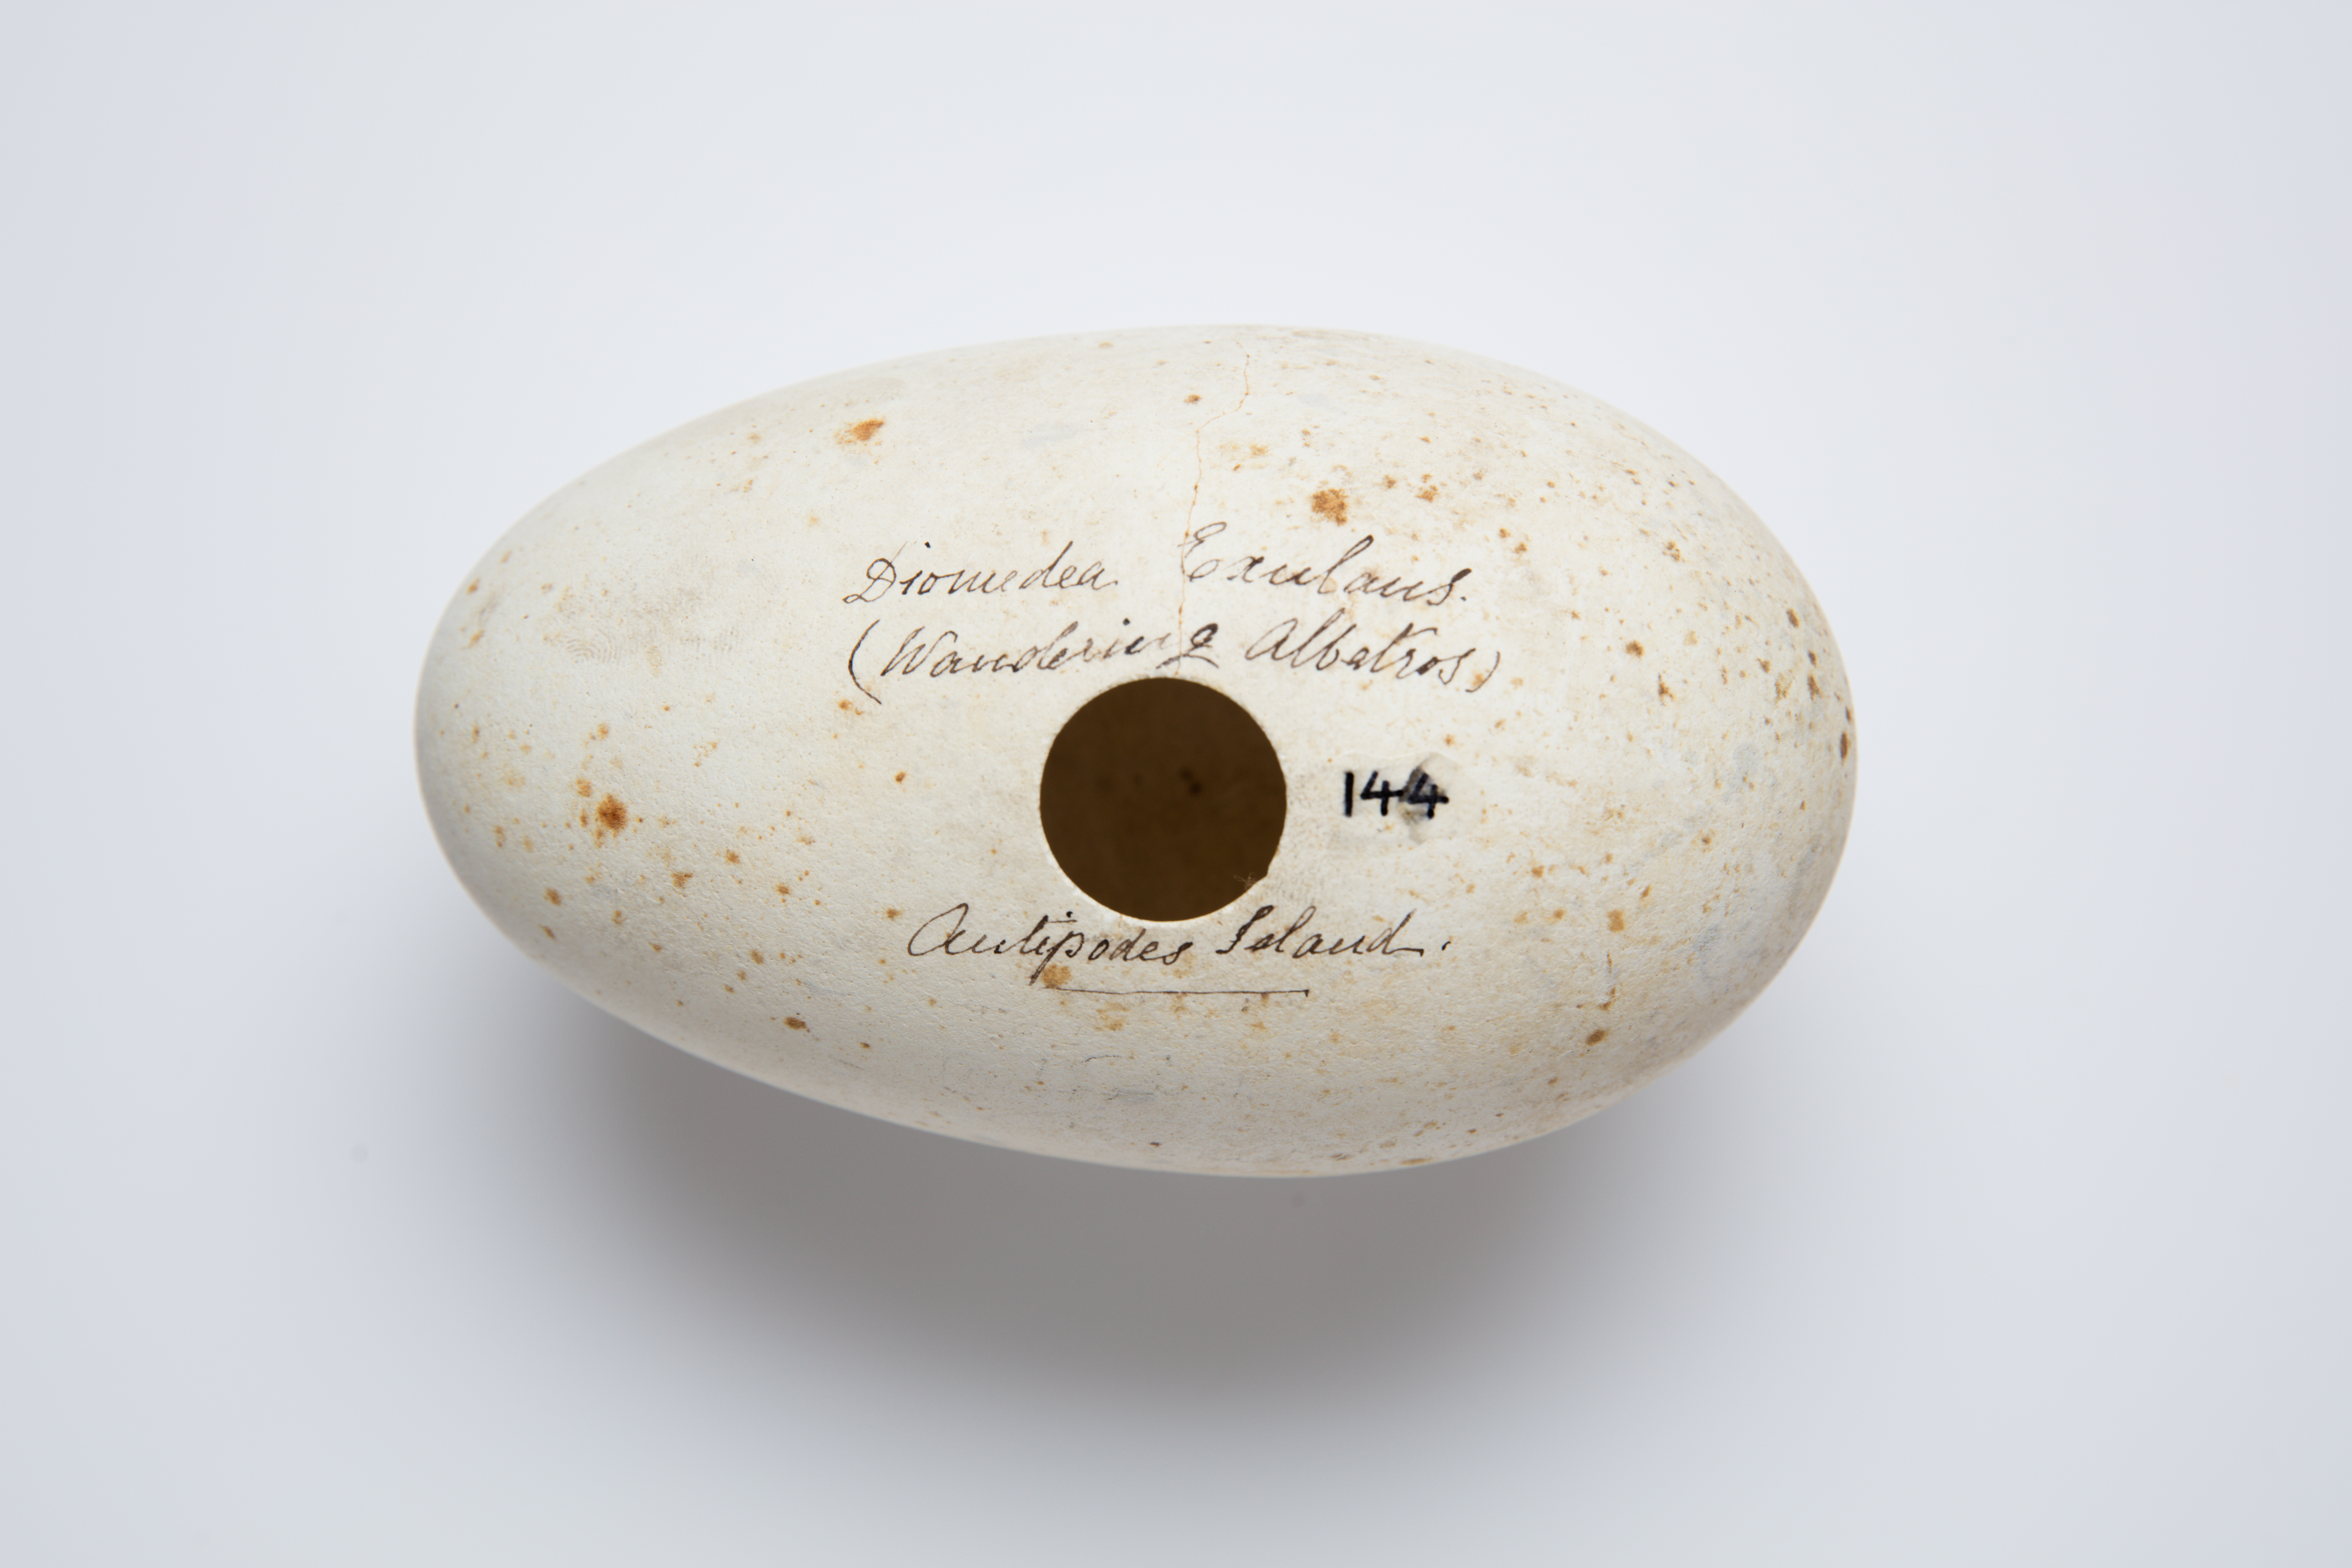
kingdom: Animalia
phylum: Chordata
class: Aves
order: Procellariiformes
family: Diomedeidae
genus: Diomedea
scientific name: Diomedea antipodensis
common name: Antipodean albatross
